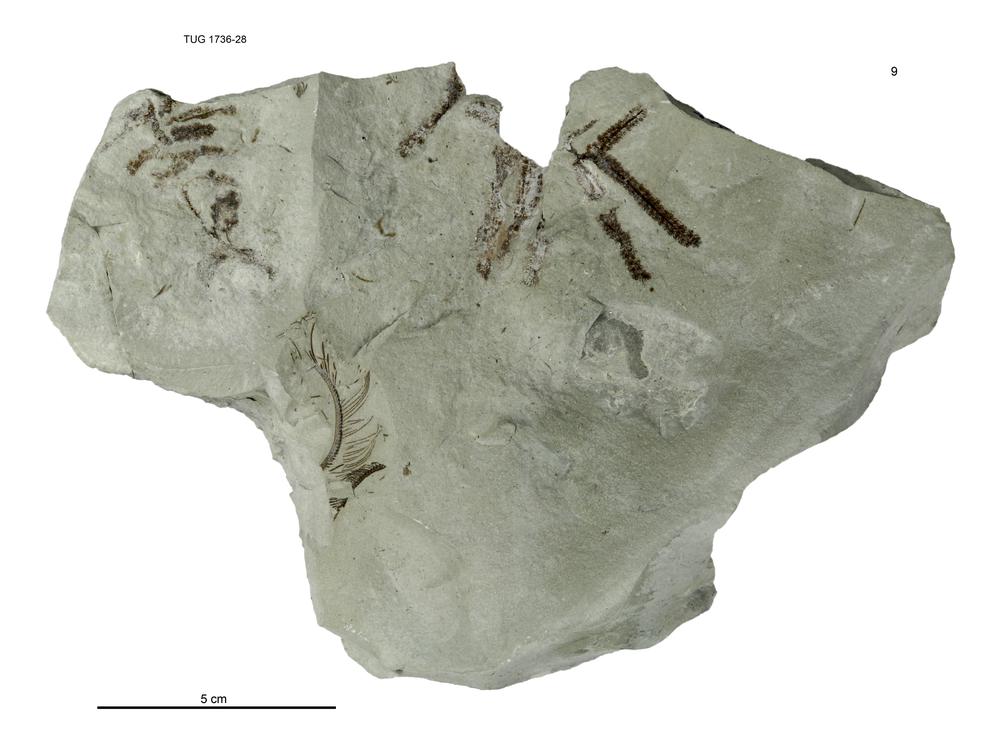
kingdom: Animalia
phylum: Echinodermata
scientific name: Echinodermata
